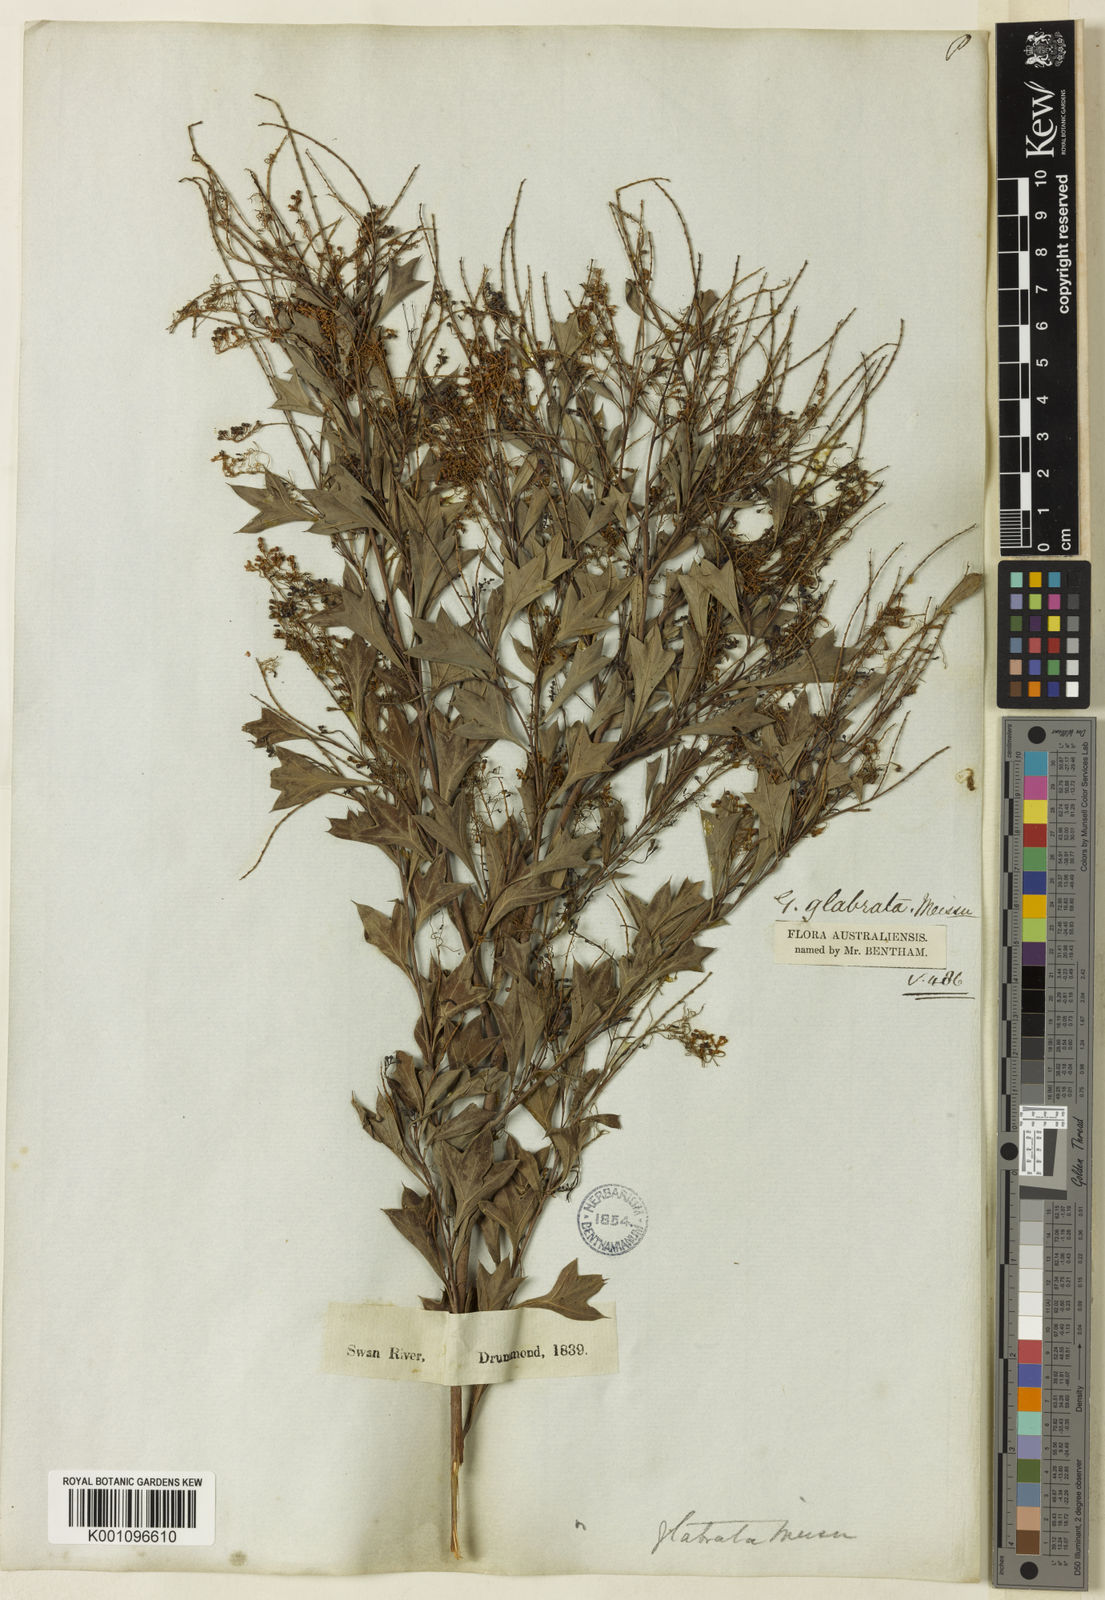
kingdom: Plantae
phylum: Tracheophyta
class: Magnoliopsida
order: Proteales
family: Proteaceae
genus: Grevillea
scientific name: Grevillea manglesii
